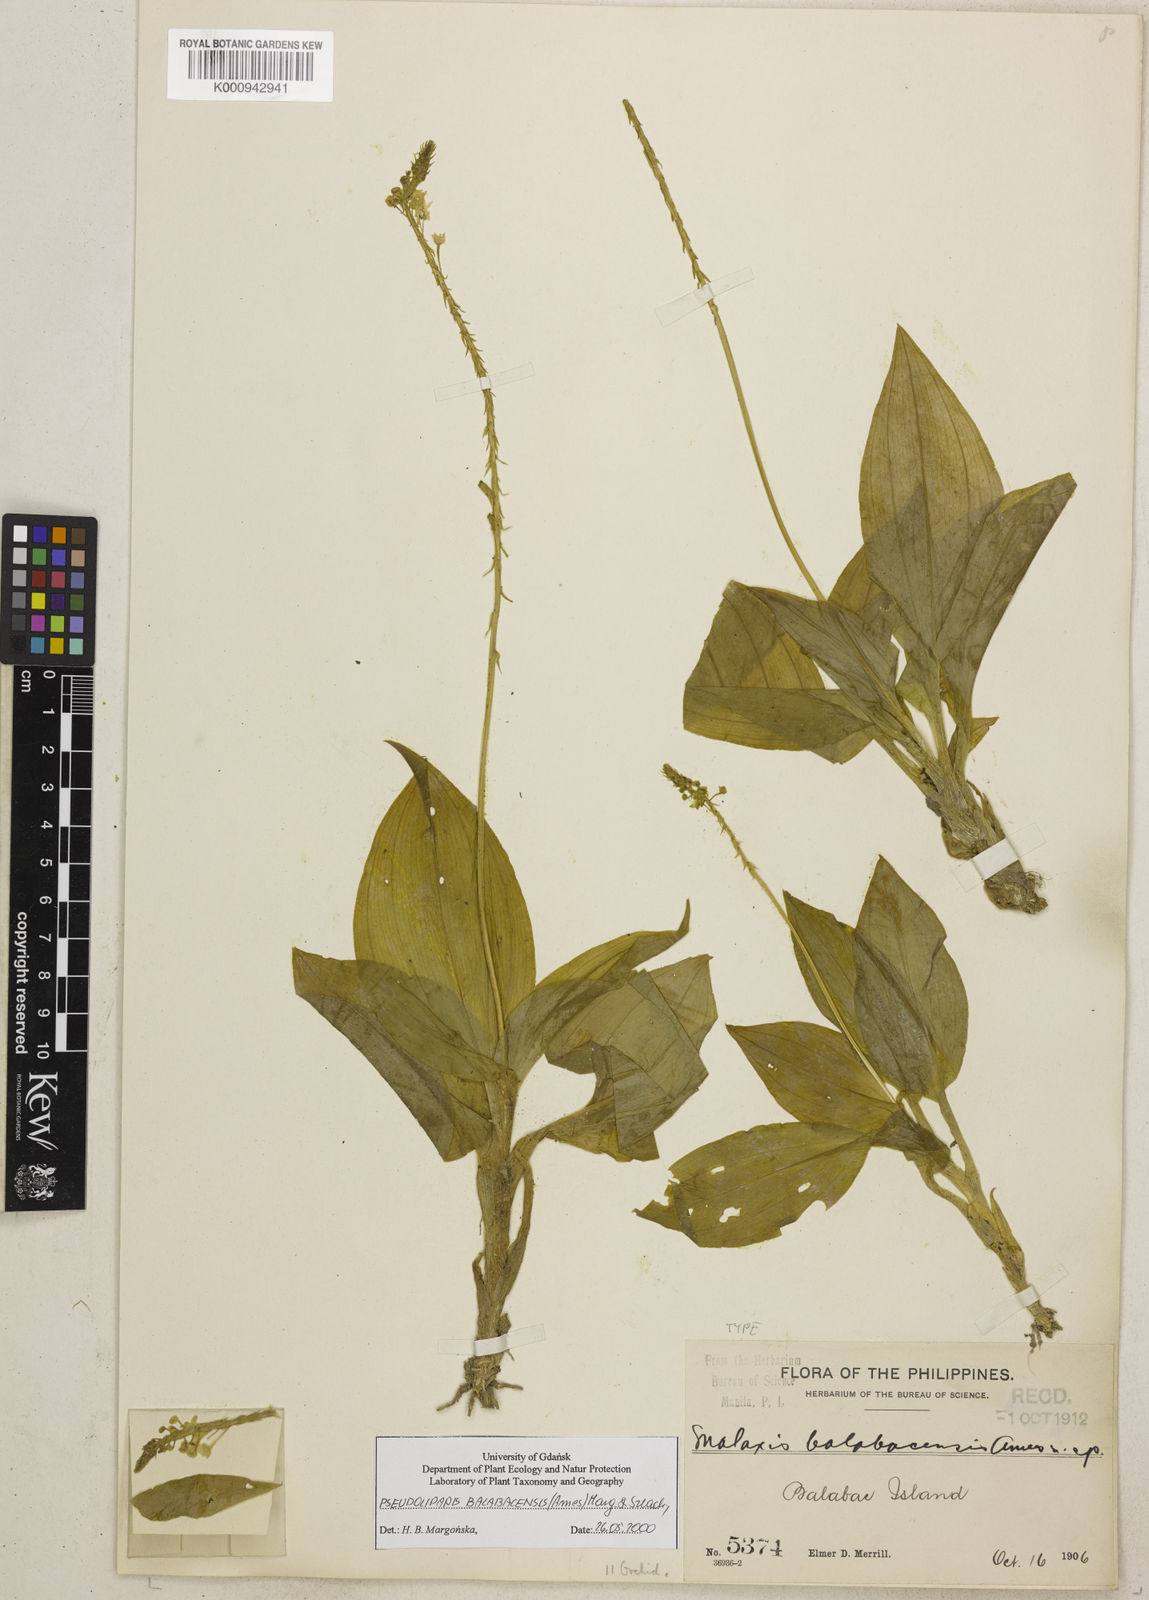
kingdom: Plantae
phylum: Tracheophyta
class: Liliopsida
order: Asparagales
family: Orchidaceae
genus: Crepidium
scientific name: Crepidium balabacense
